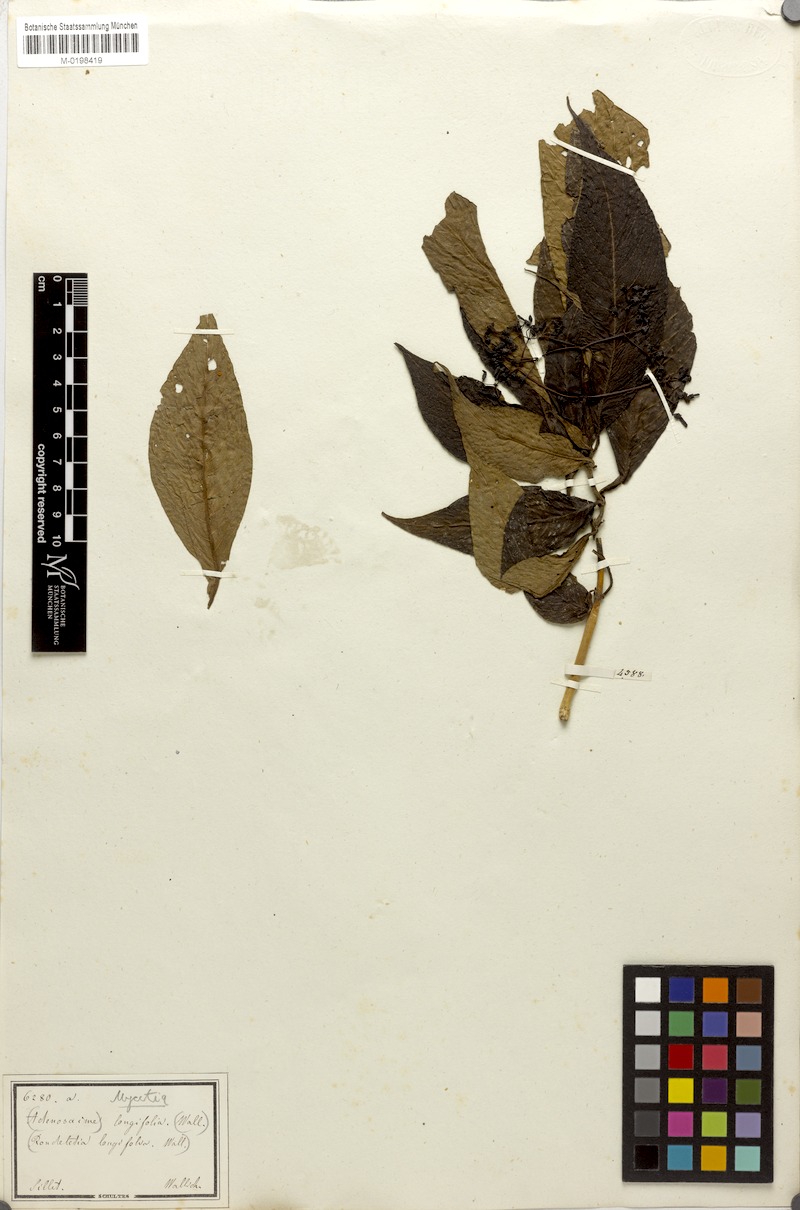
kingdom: Plantae
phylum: Tracheophyta
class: Magnoliopsida
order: Gentianales
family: Rubiaceae
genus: Mycetia
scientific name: Mycetia longifolia
